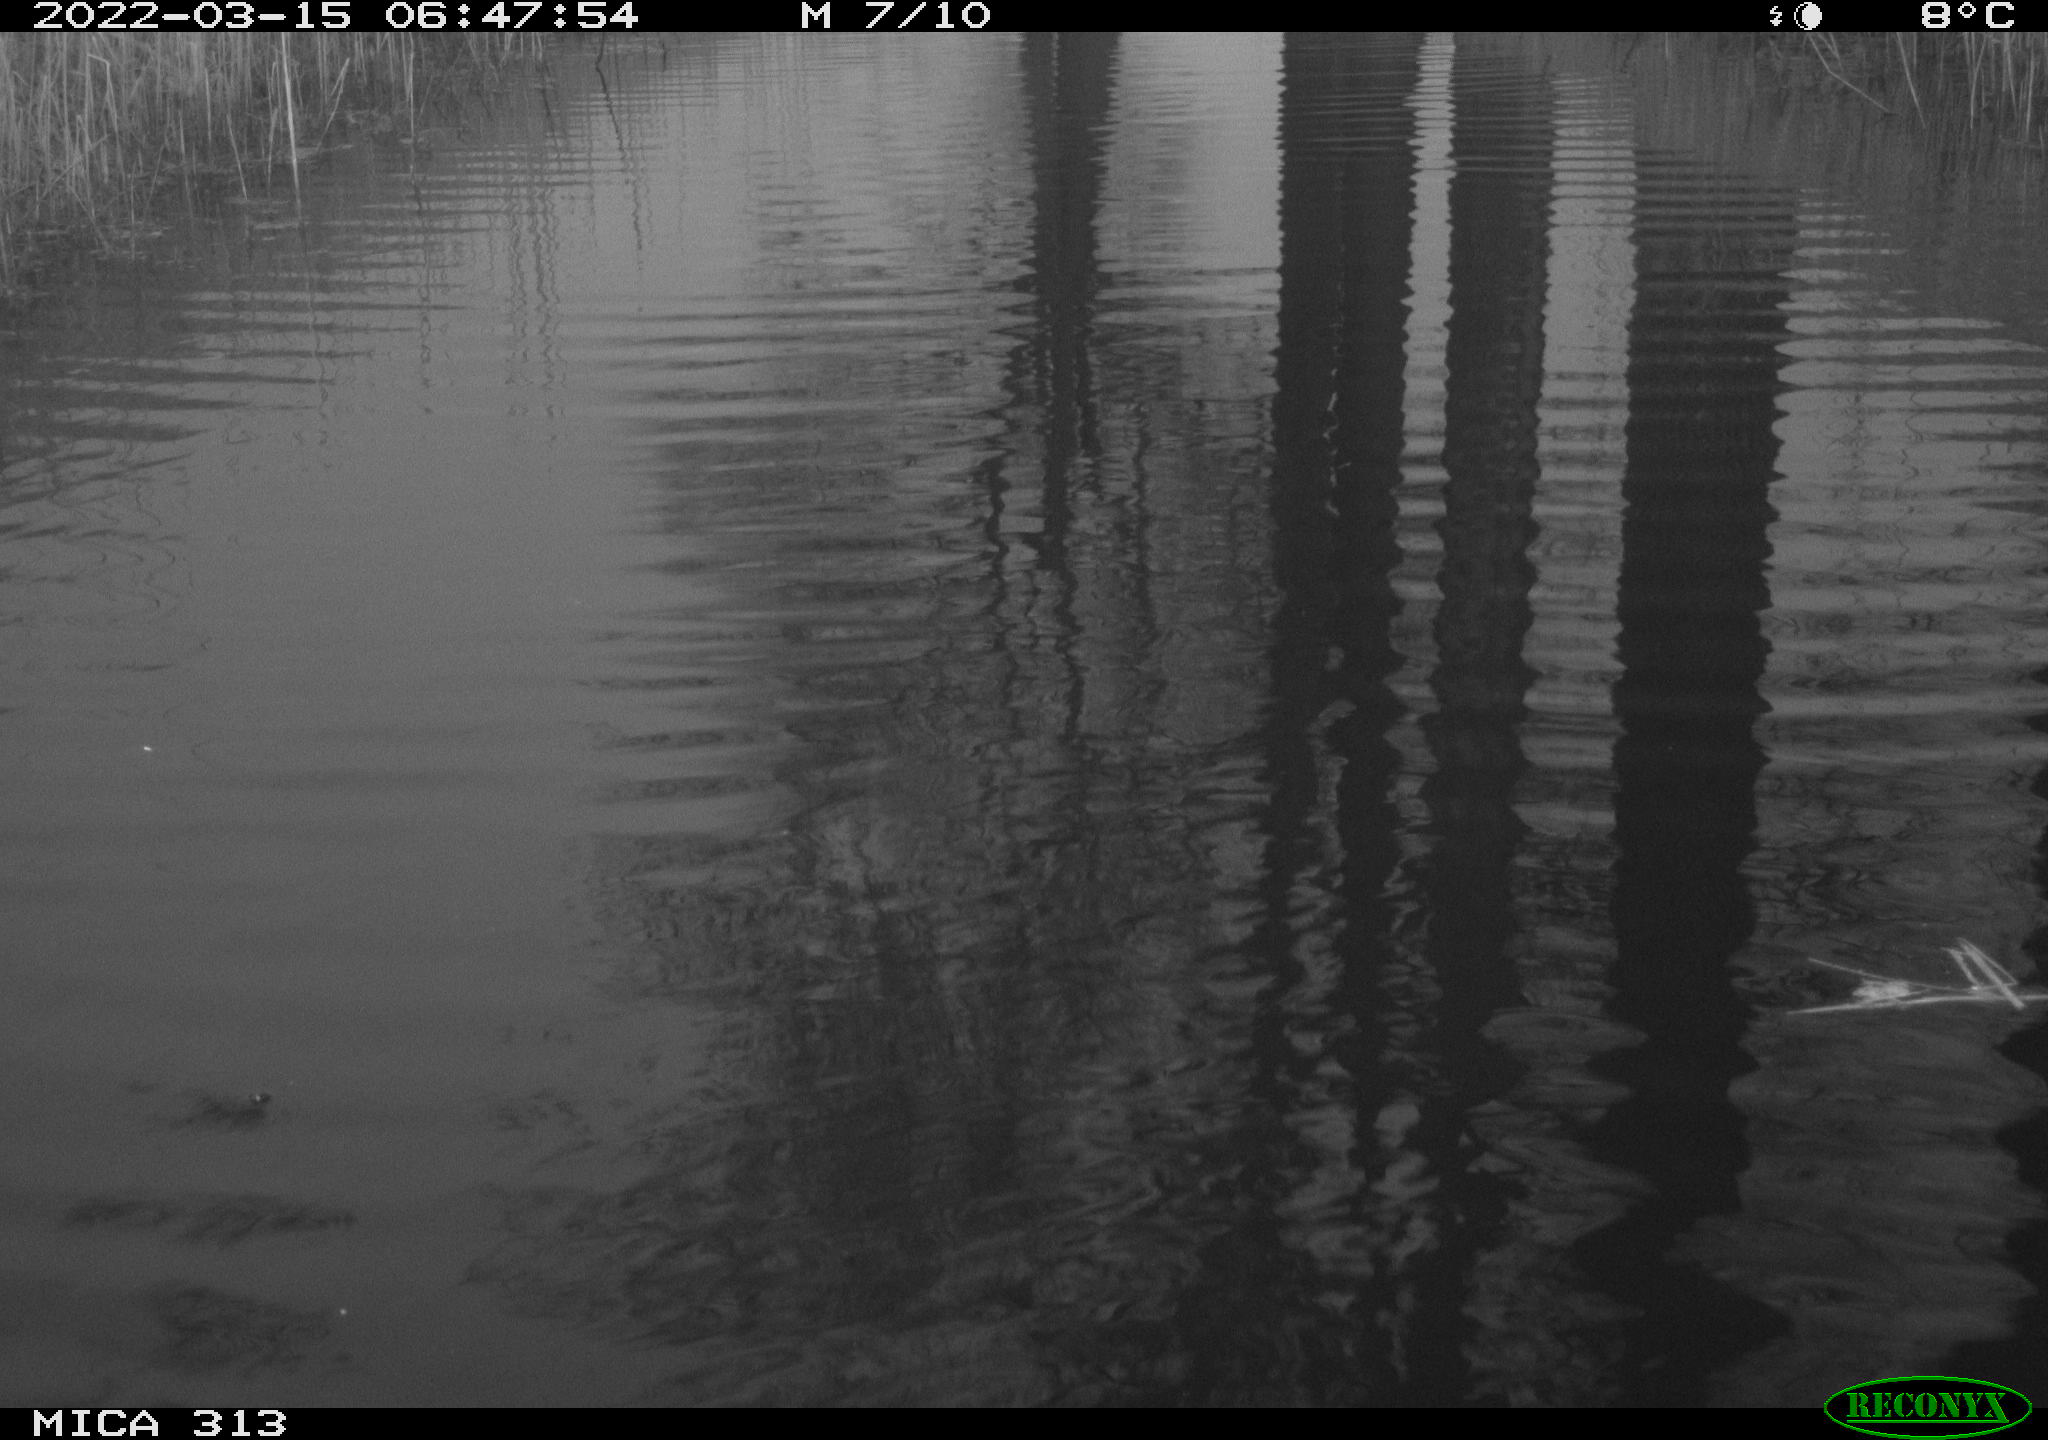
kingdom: Animalia
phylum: Chordata
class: Aves
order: Gruiformes
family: Rallidae
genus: Gallinula
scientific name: Gallinula chloropus
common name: Common moorhen
